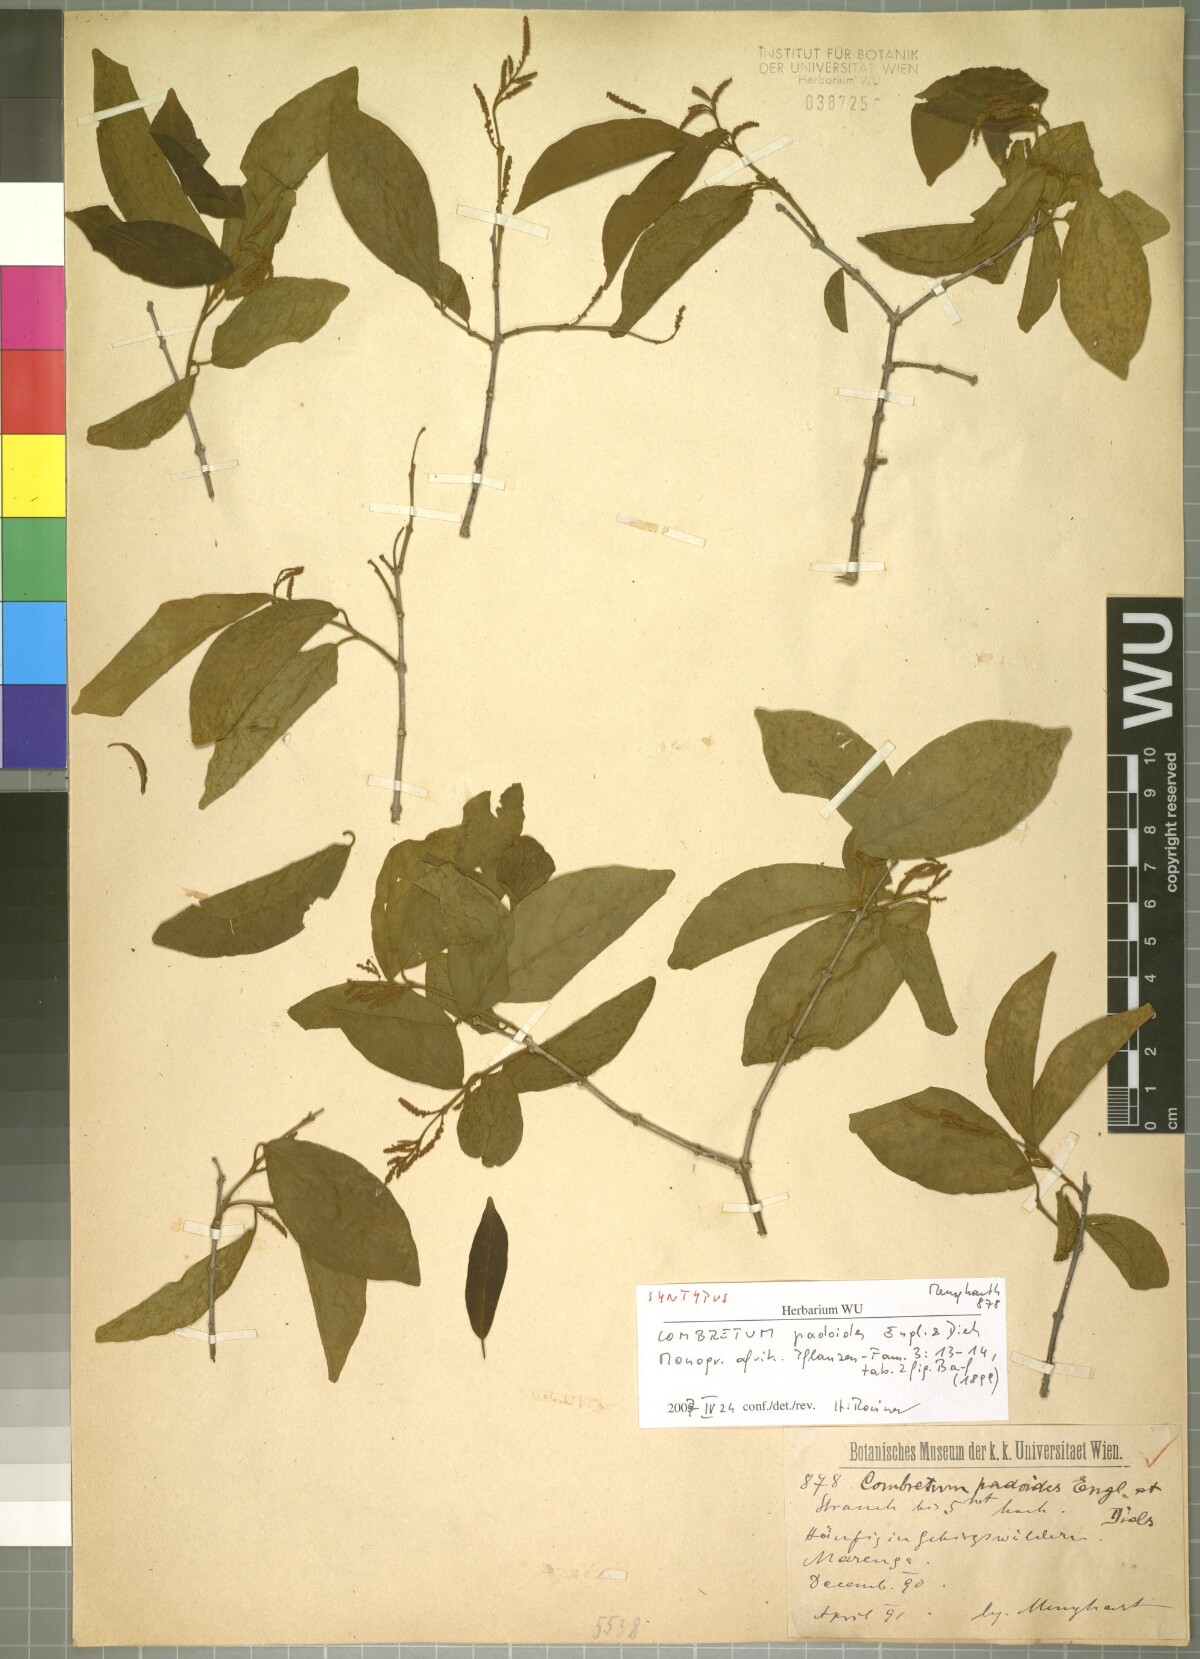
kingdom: Plantae
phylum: Tracheophyta
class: Magnoliopsida
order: Myrtales
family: Combretaceae
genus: Combretum
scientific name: Combretum padoides
